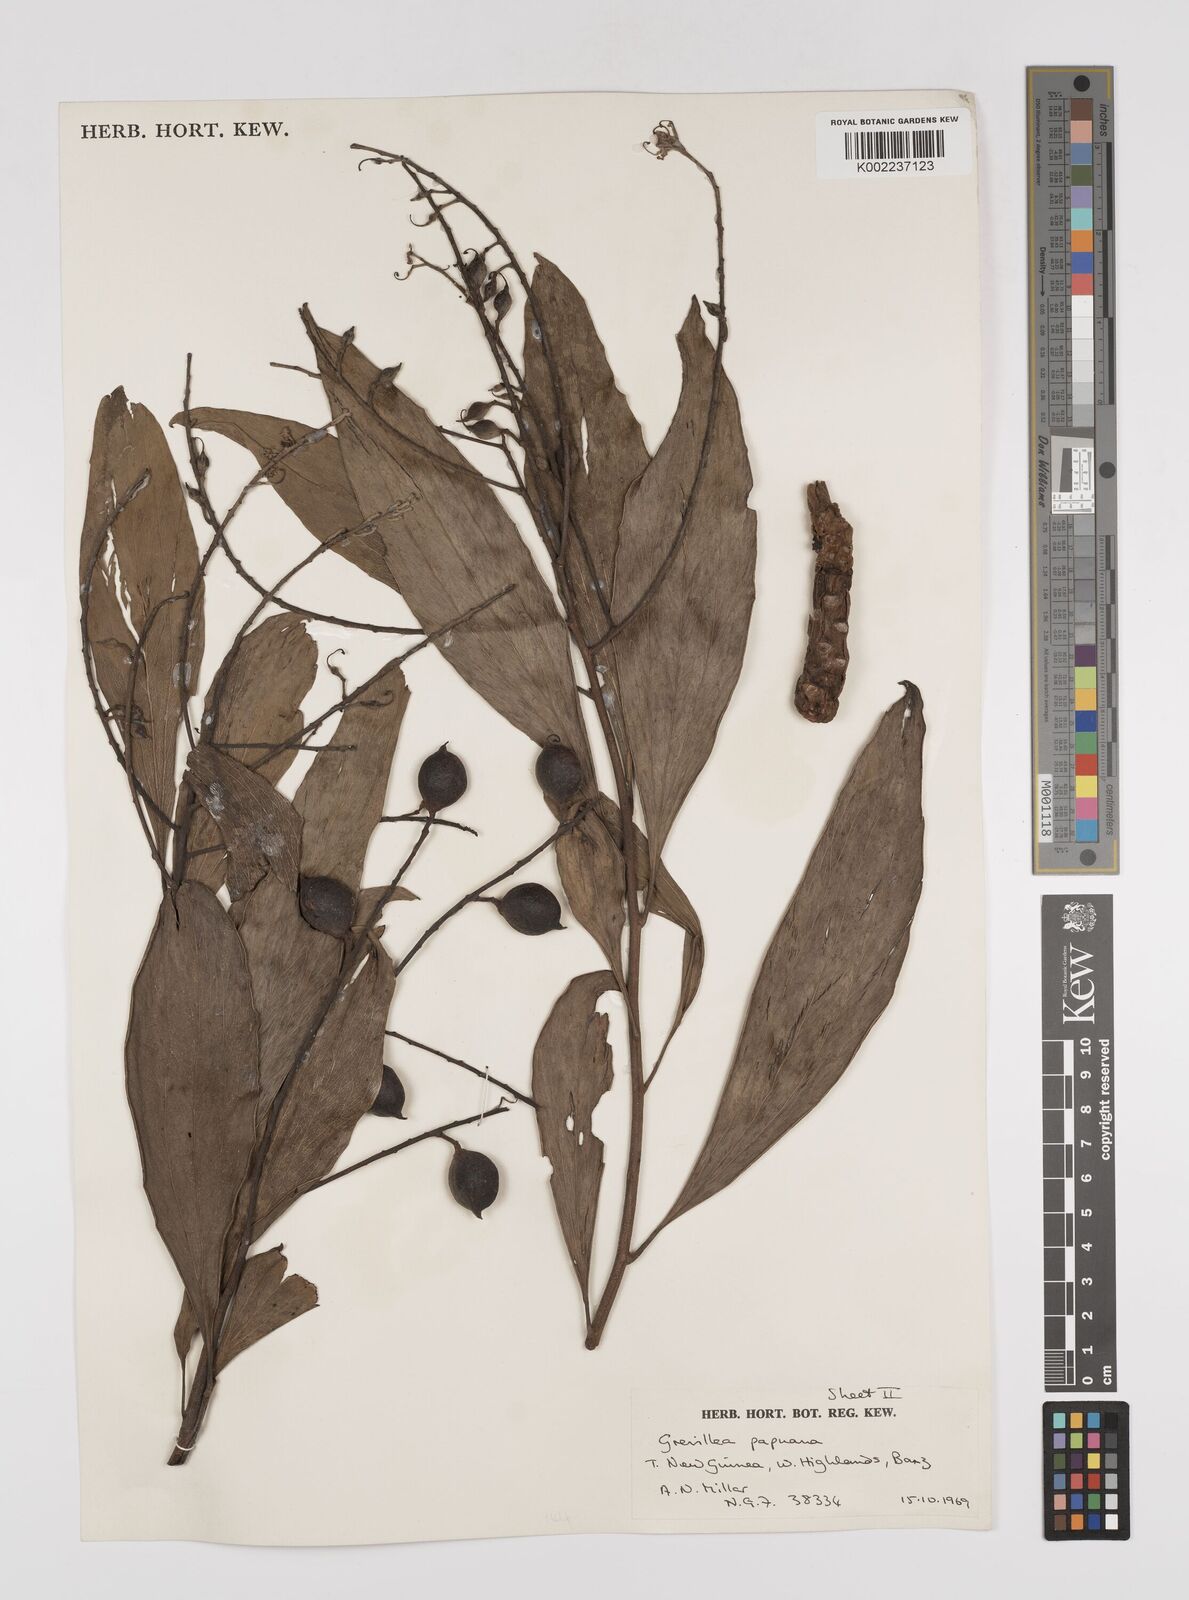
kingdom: Plantae
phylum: Tracheophyta
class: Magnoliopsida
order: Proteales
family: Proteaceae
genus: Grevillea
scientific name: Grevillea papuana
